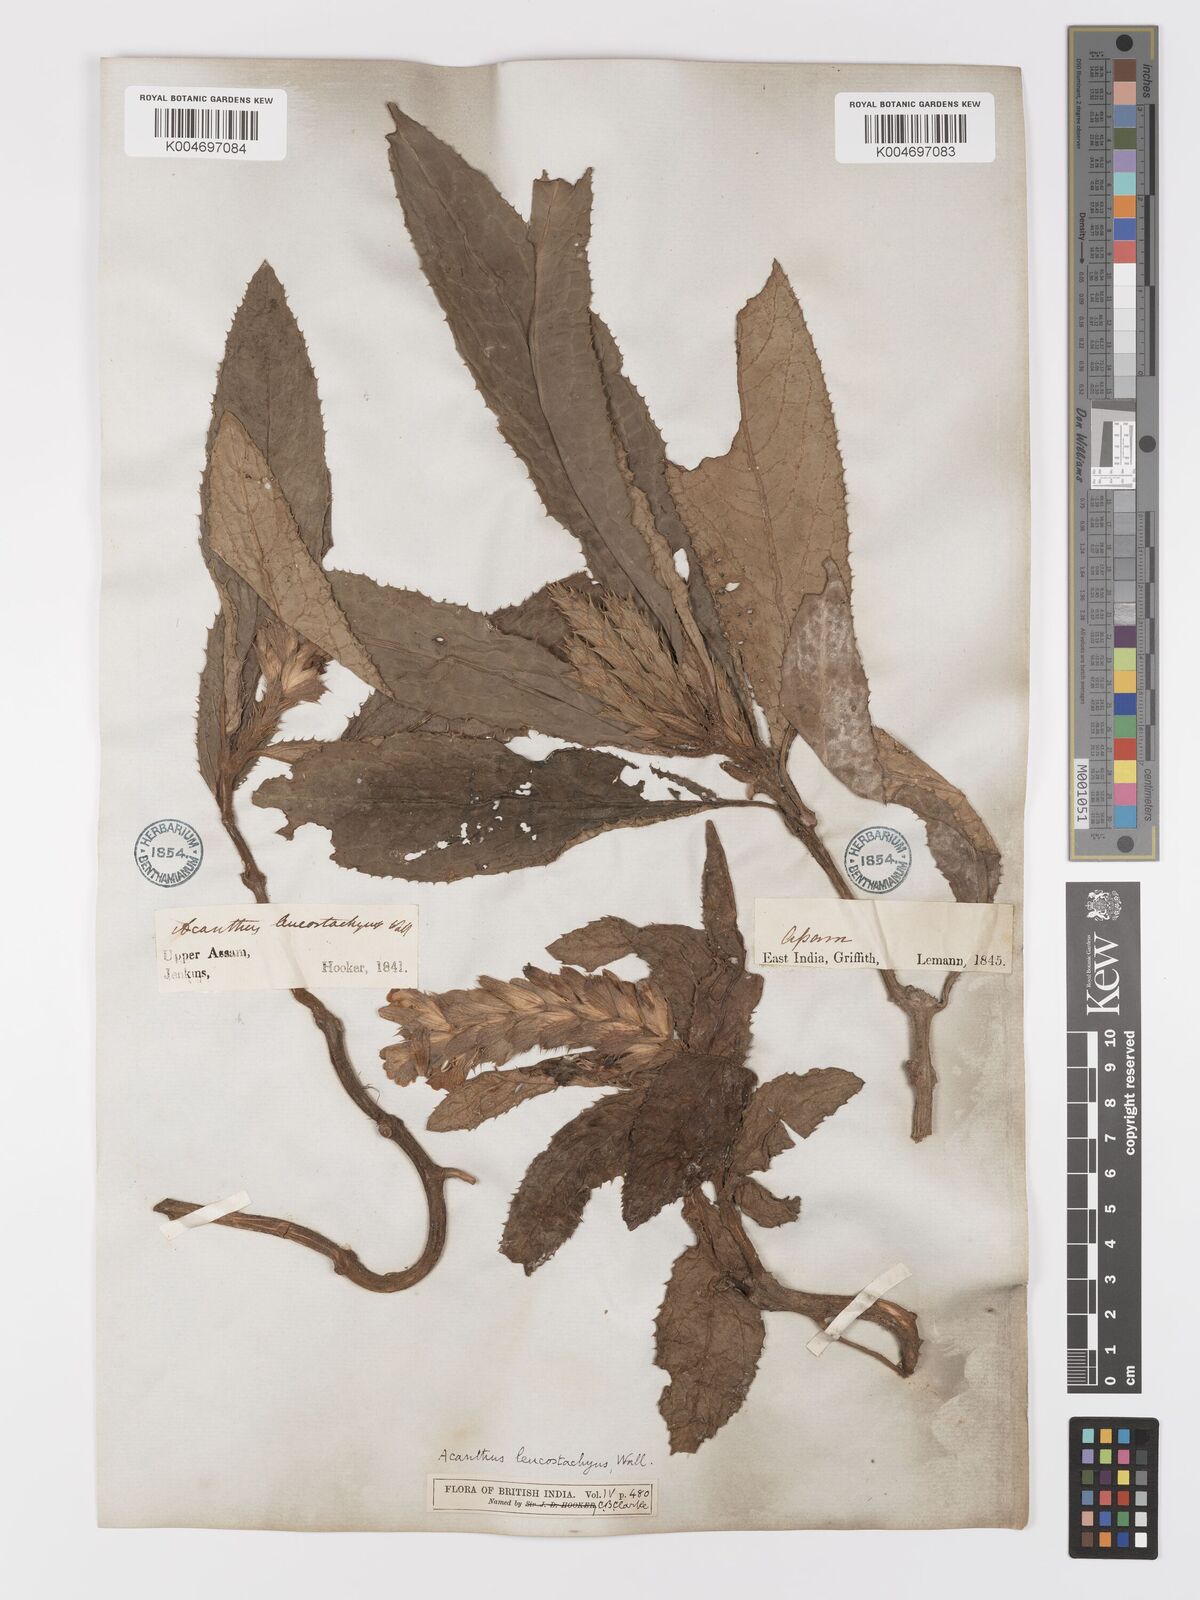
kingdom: Plantae
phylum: Tracheophyta
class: Magnoliopsida
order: Lamiales
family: Acanthaceae
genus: Acanthus
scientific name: Acanthus leucostachyus
